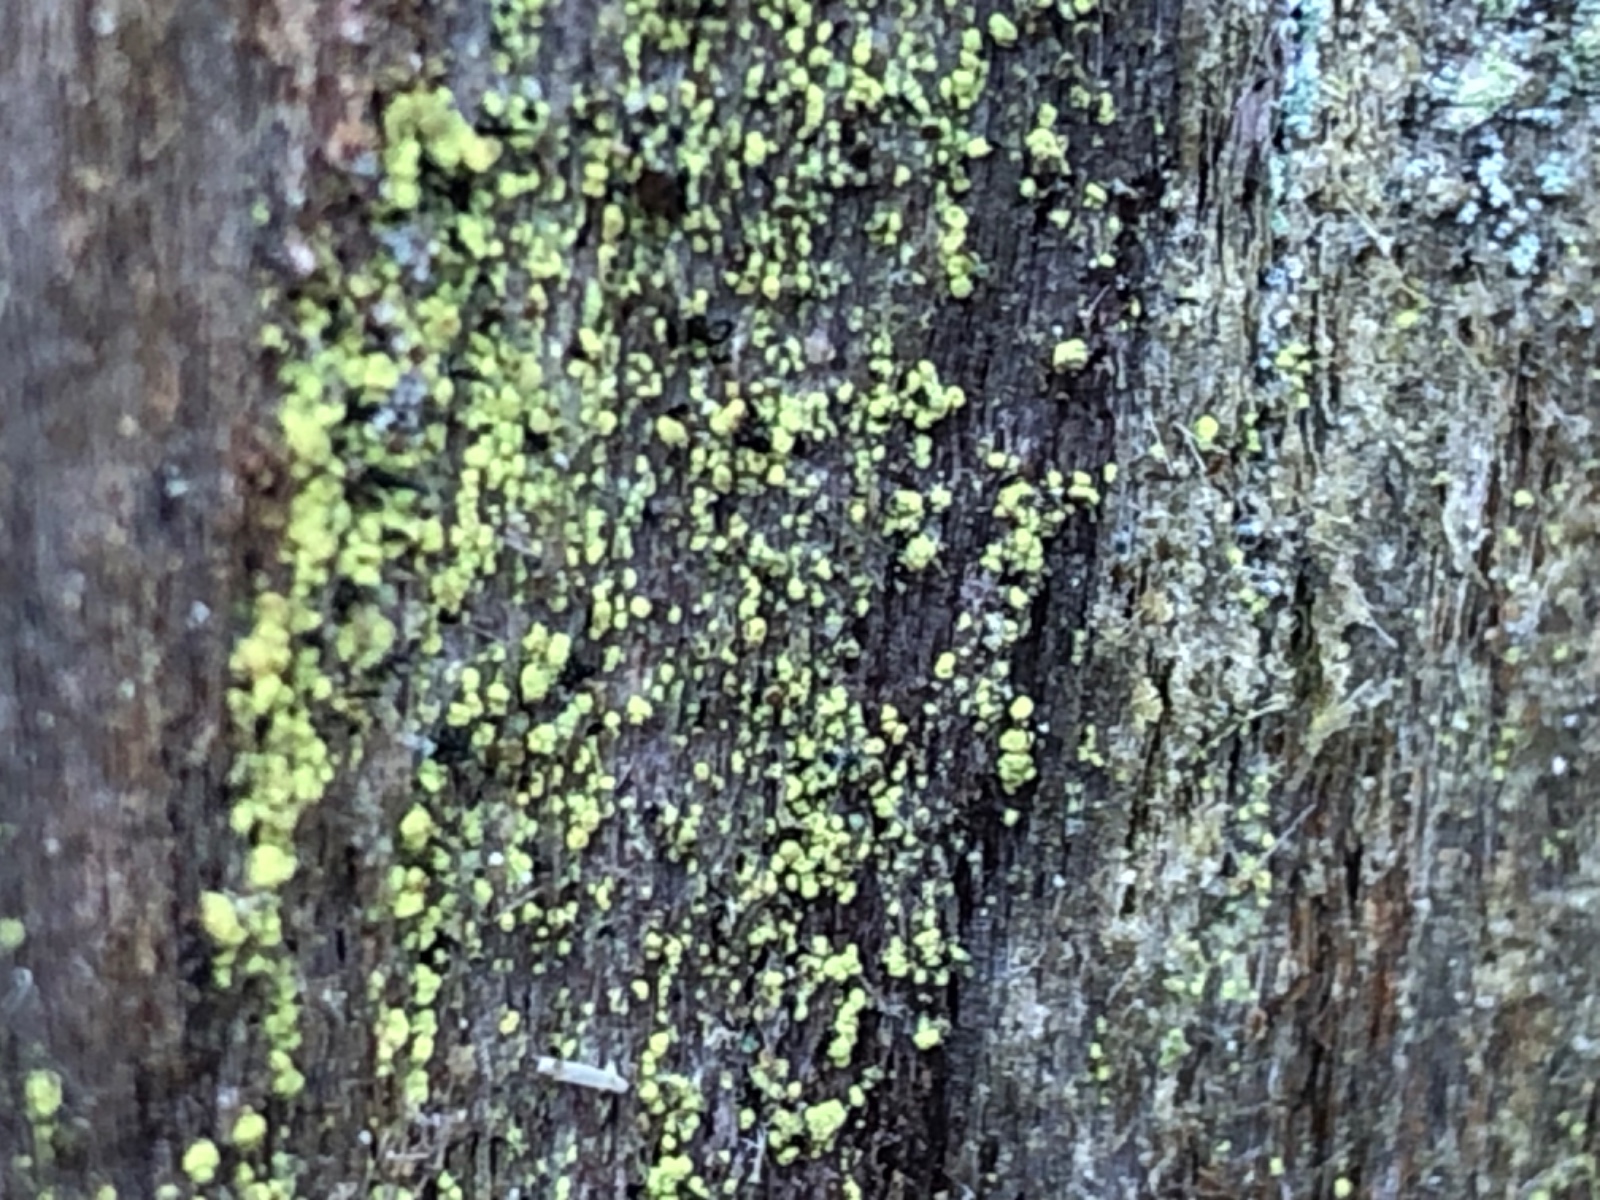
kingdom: Fungi
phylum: Ascomycota
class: Coniocybomycetes
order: Coniocybales
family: Coniocybaceae
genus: Chaenotheca
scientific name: Chaenotheca chrysocephala
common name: citrongul knappenålslav
